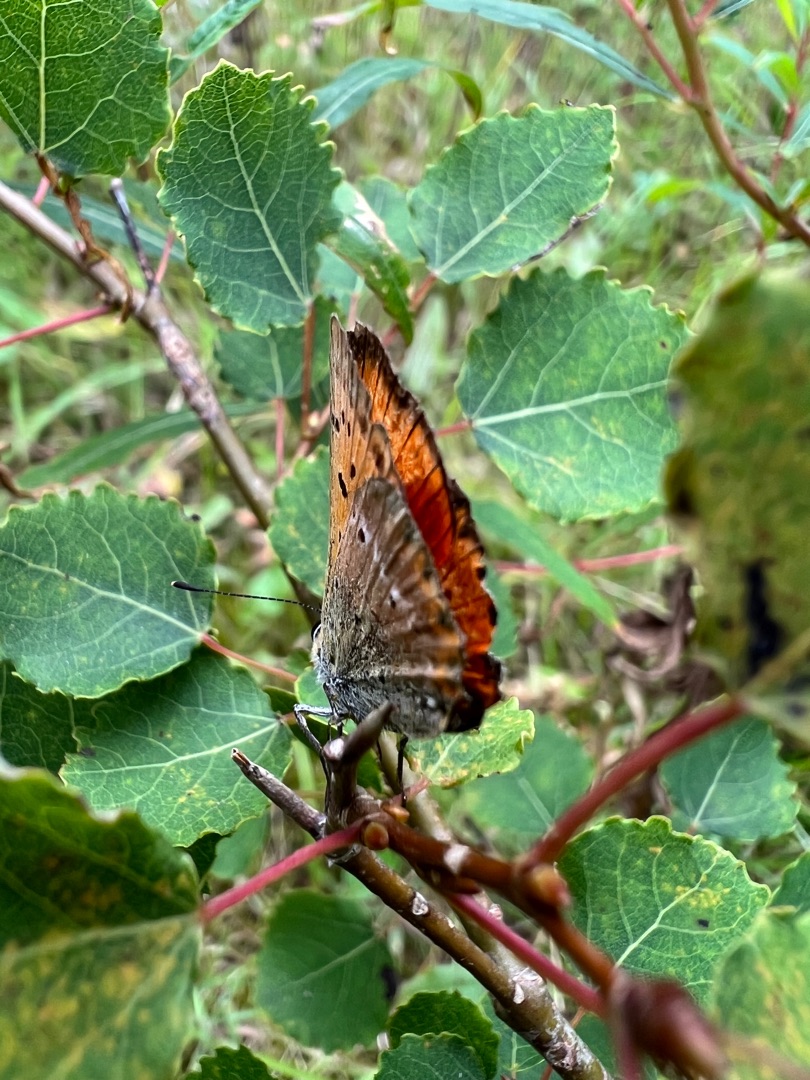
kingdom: Animalia
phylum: Arthropoda
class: Insecta
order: Lepidoptera
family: Lycaenidae
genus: Lycaena
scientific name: Lycaena virgaureae
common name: Dukatsommerfugl
